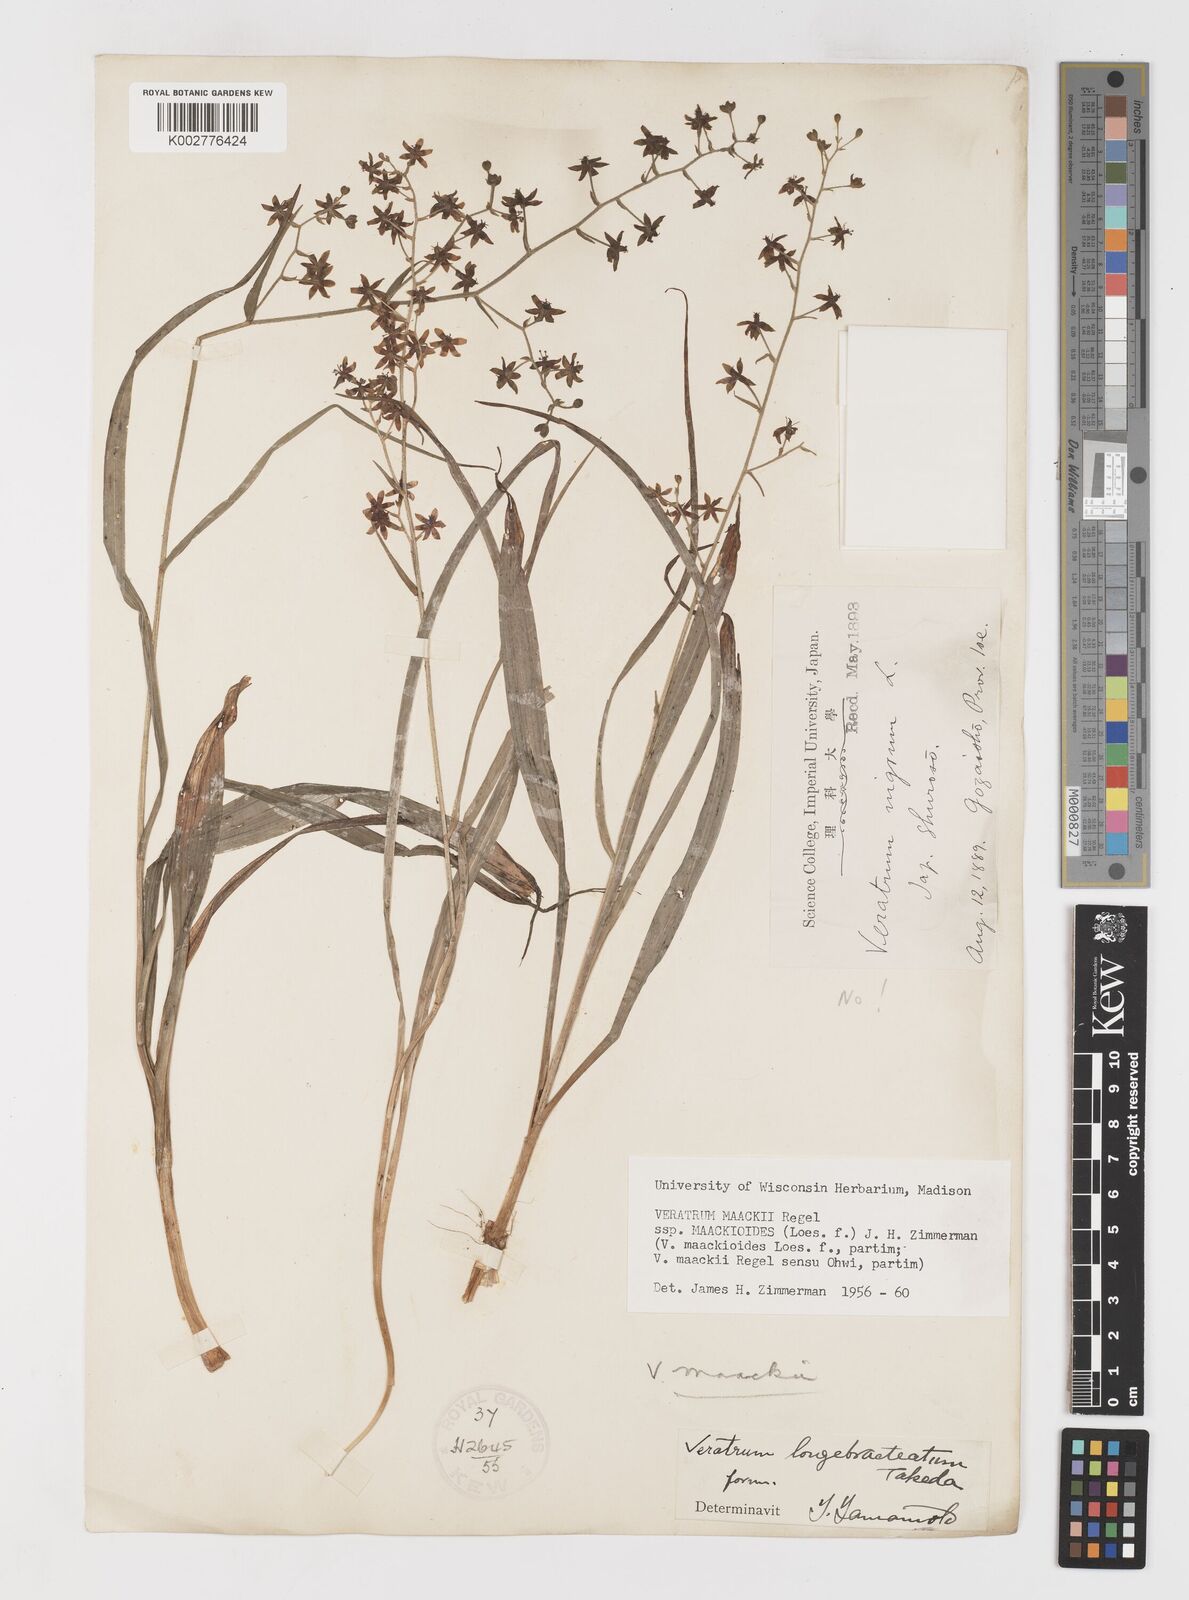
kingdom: Plantae
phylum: Tracheophyta
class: Liliopsida
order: Liliales
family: Melanthiaceae
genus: Veratrum
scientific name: Veratrum maackii
